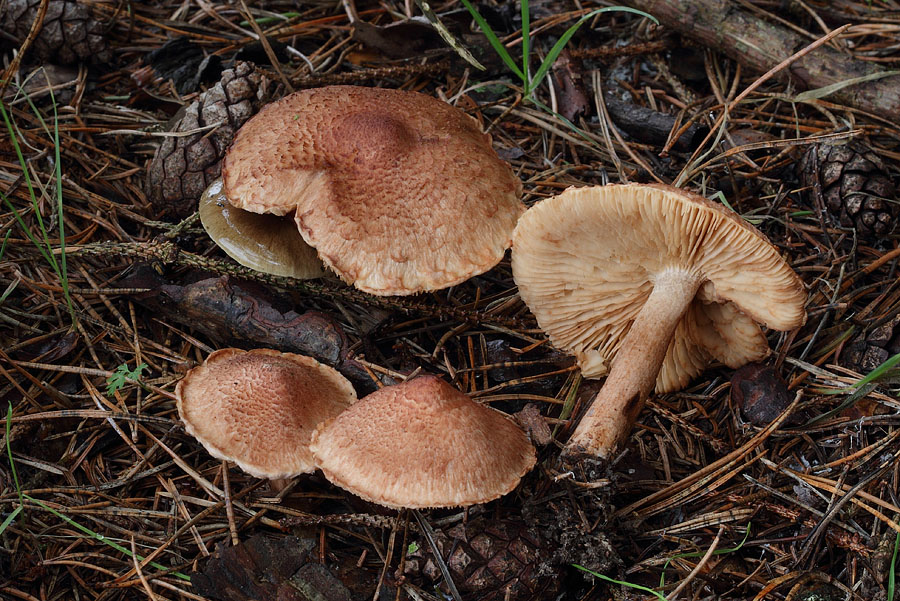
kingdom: Fungi
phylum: Basidiomycota
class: Agaricomycetes
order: Agaricales
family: Tricholomataceae
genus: Tricholoma
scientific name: Tricholoma vaccinum
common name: ko-ridderhat
